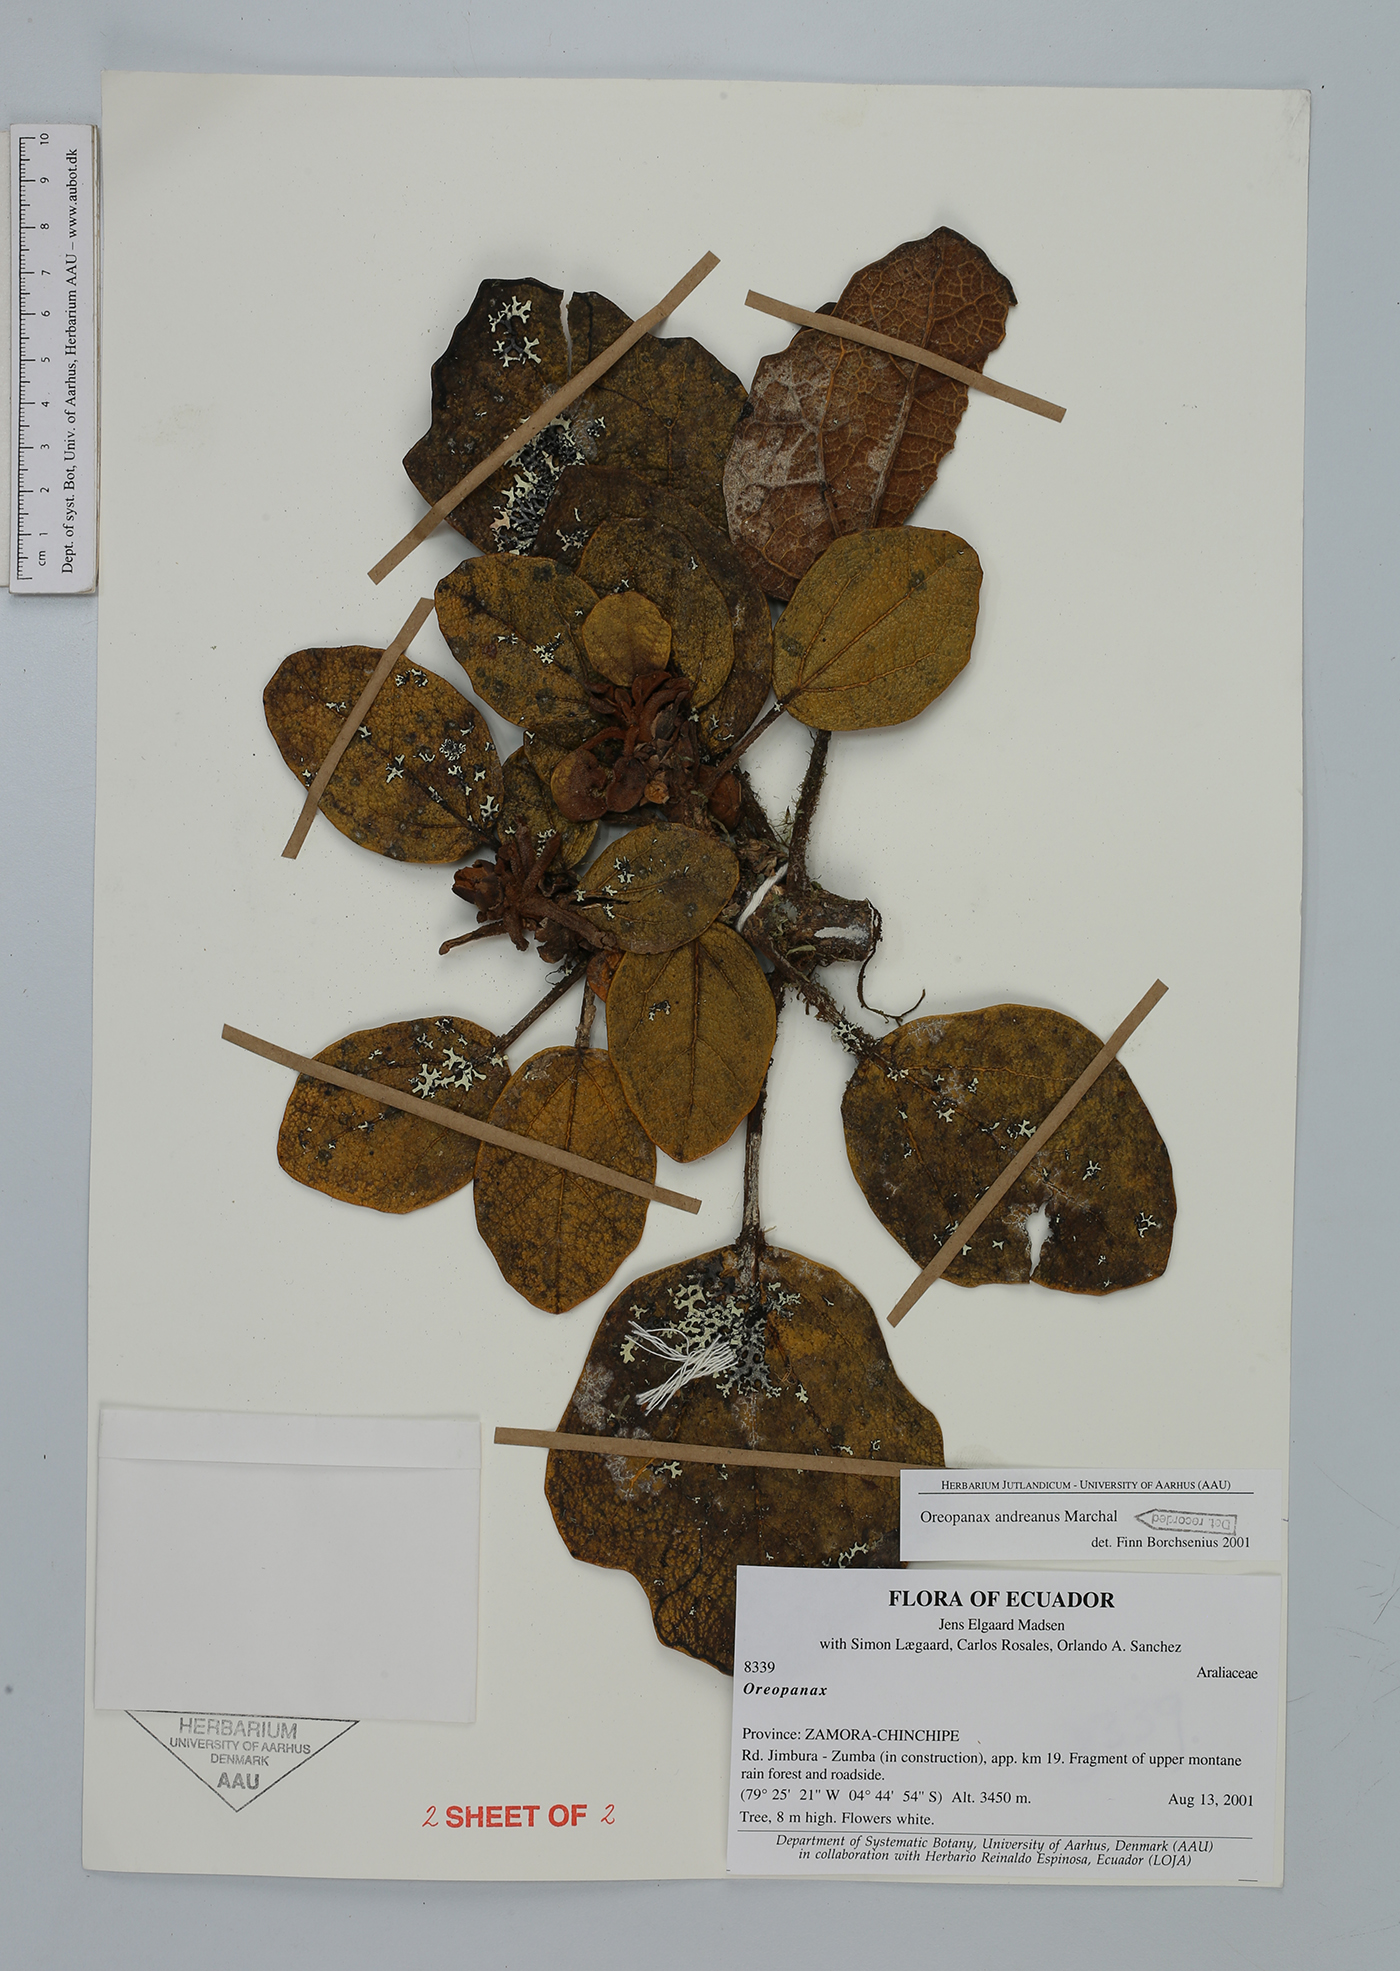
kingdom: Plantae
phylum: Tracheophyta
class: Magnoliopsida
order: Apiales
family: Araliaceae
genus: Oreopanax
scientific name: Oreopanax andreanus
